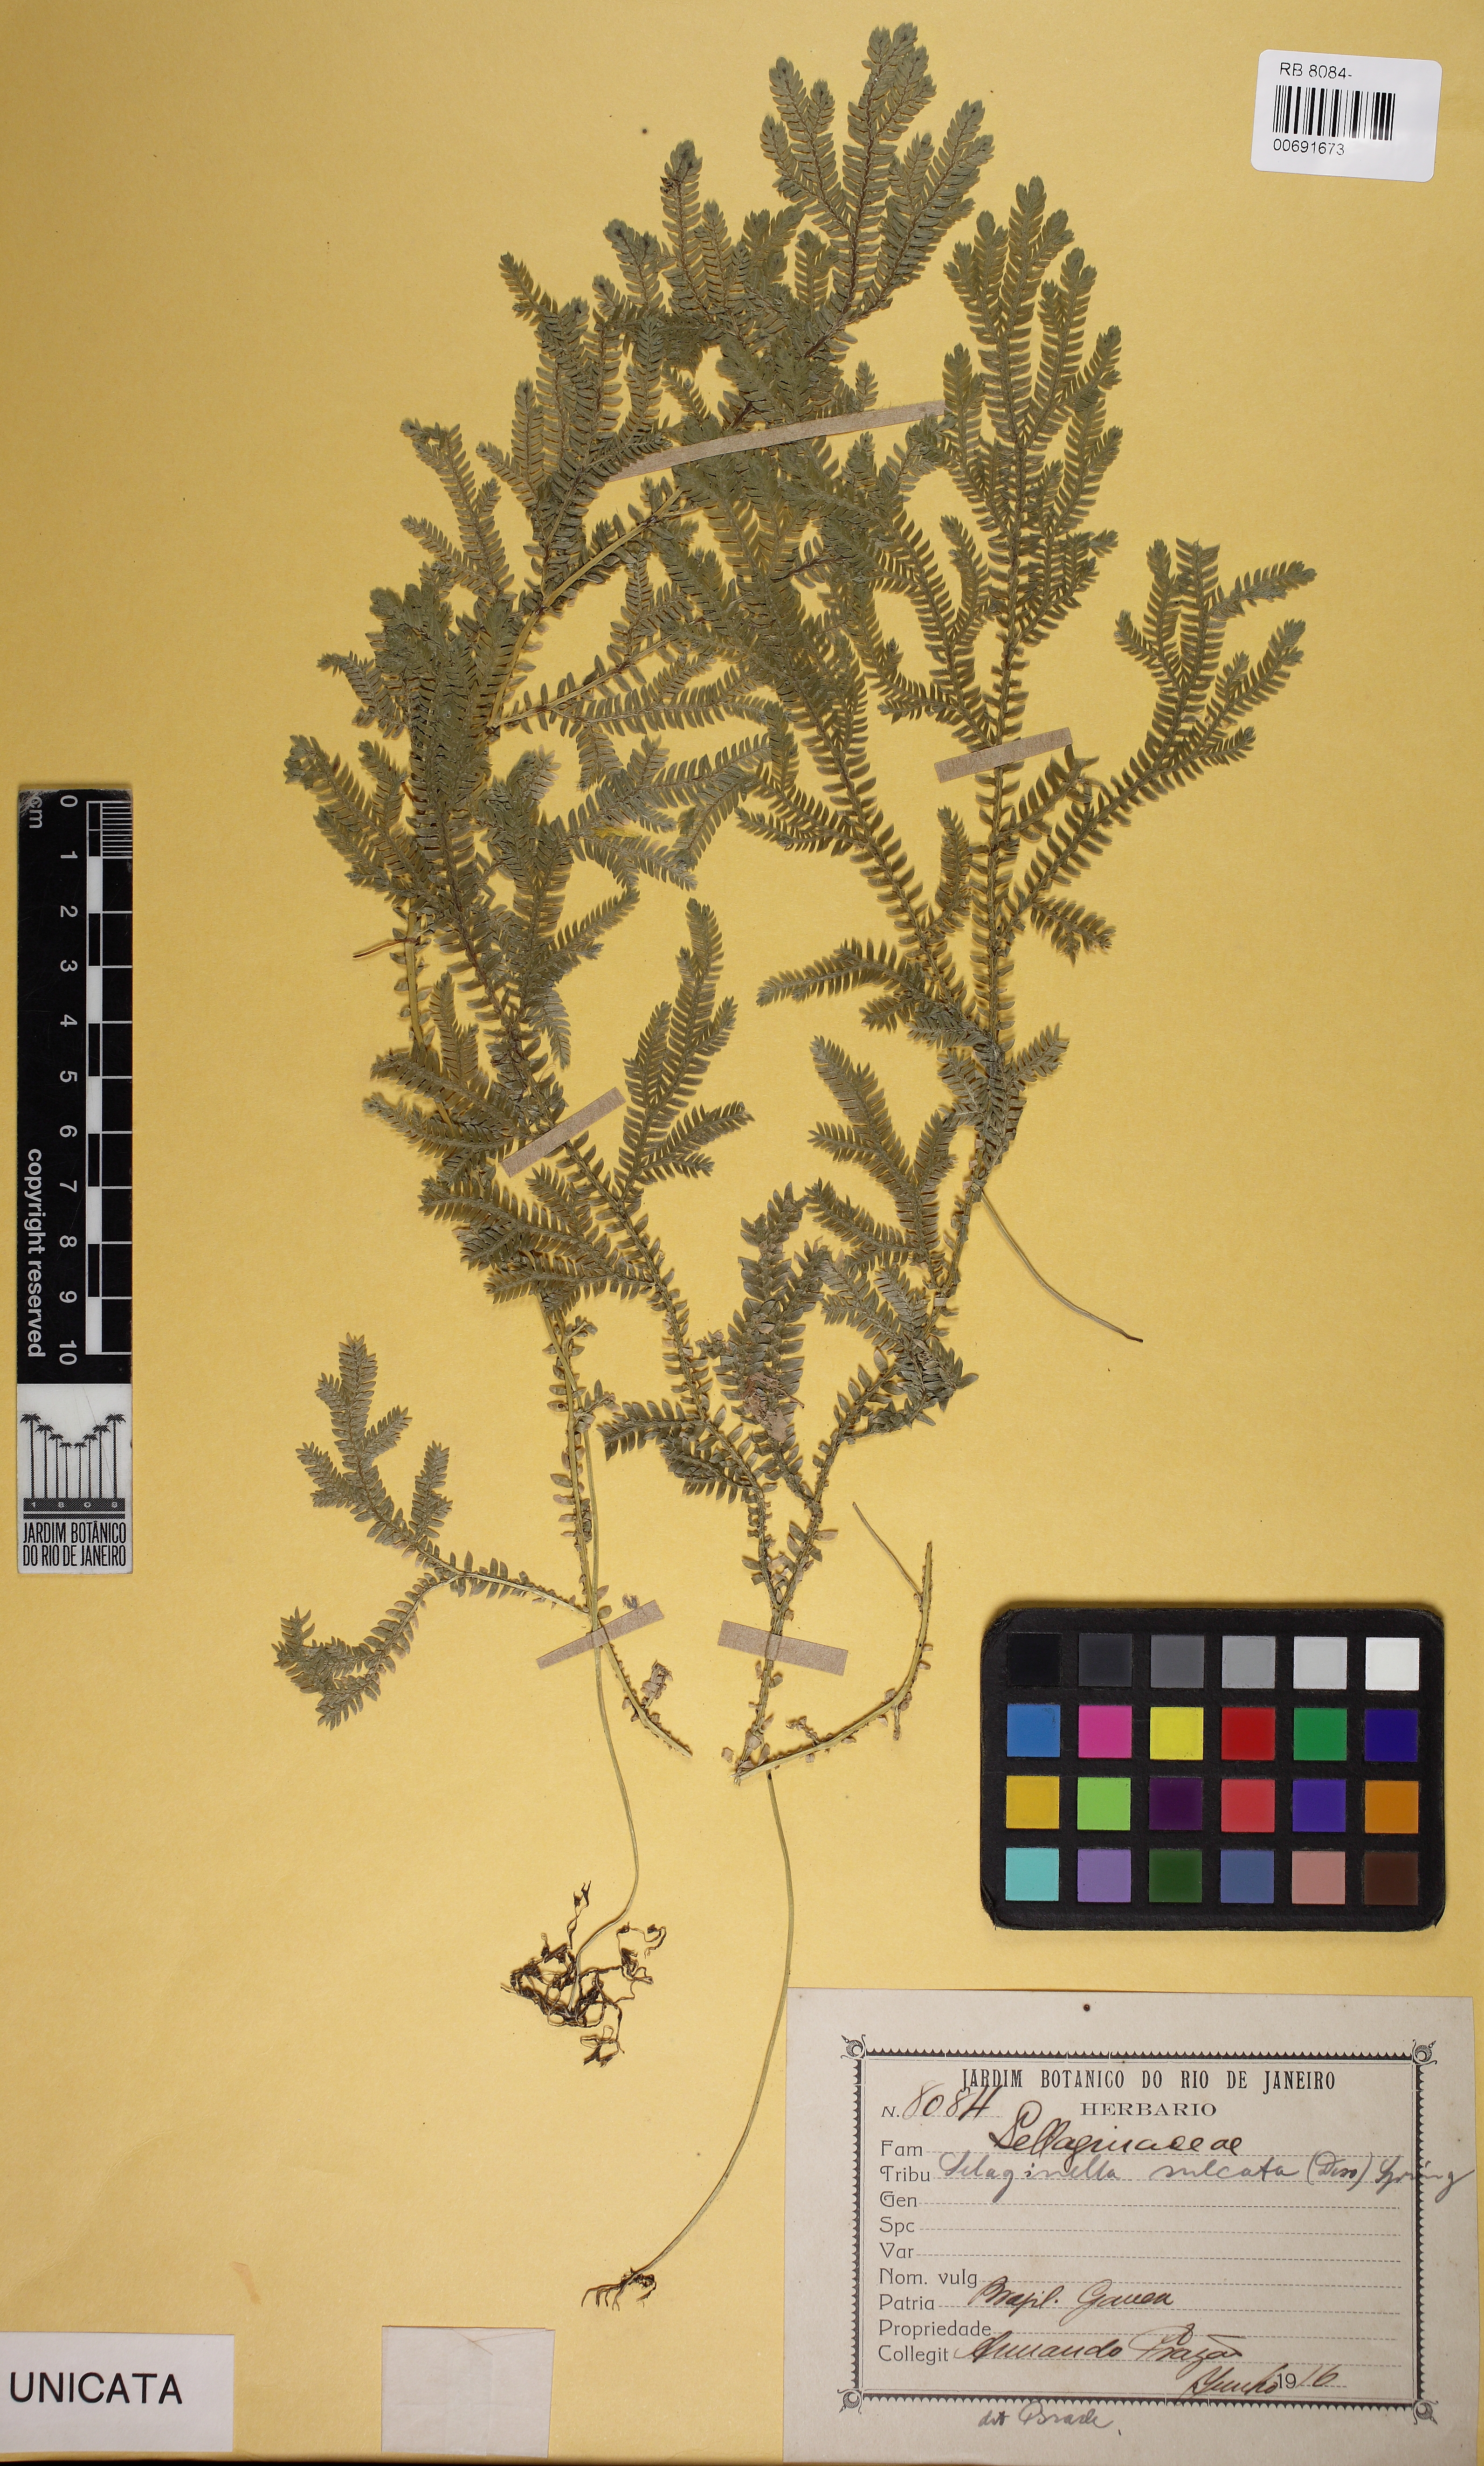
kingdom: Plantae
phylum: Tracheophyta
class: Lycopodiopsida
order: Selaginellales
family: Selaginellaceae
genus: Selaginella
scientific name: Selaginella sulcata
